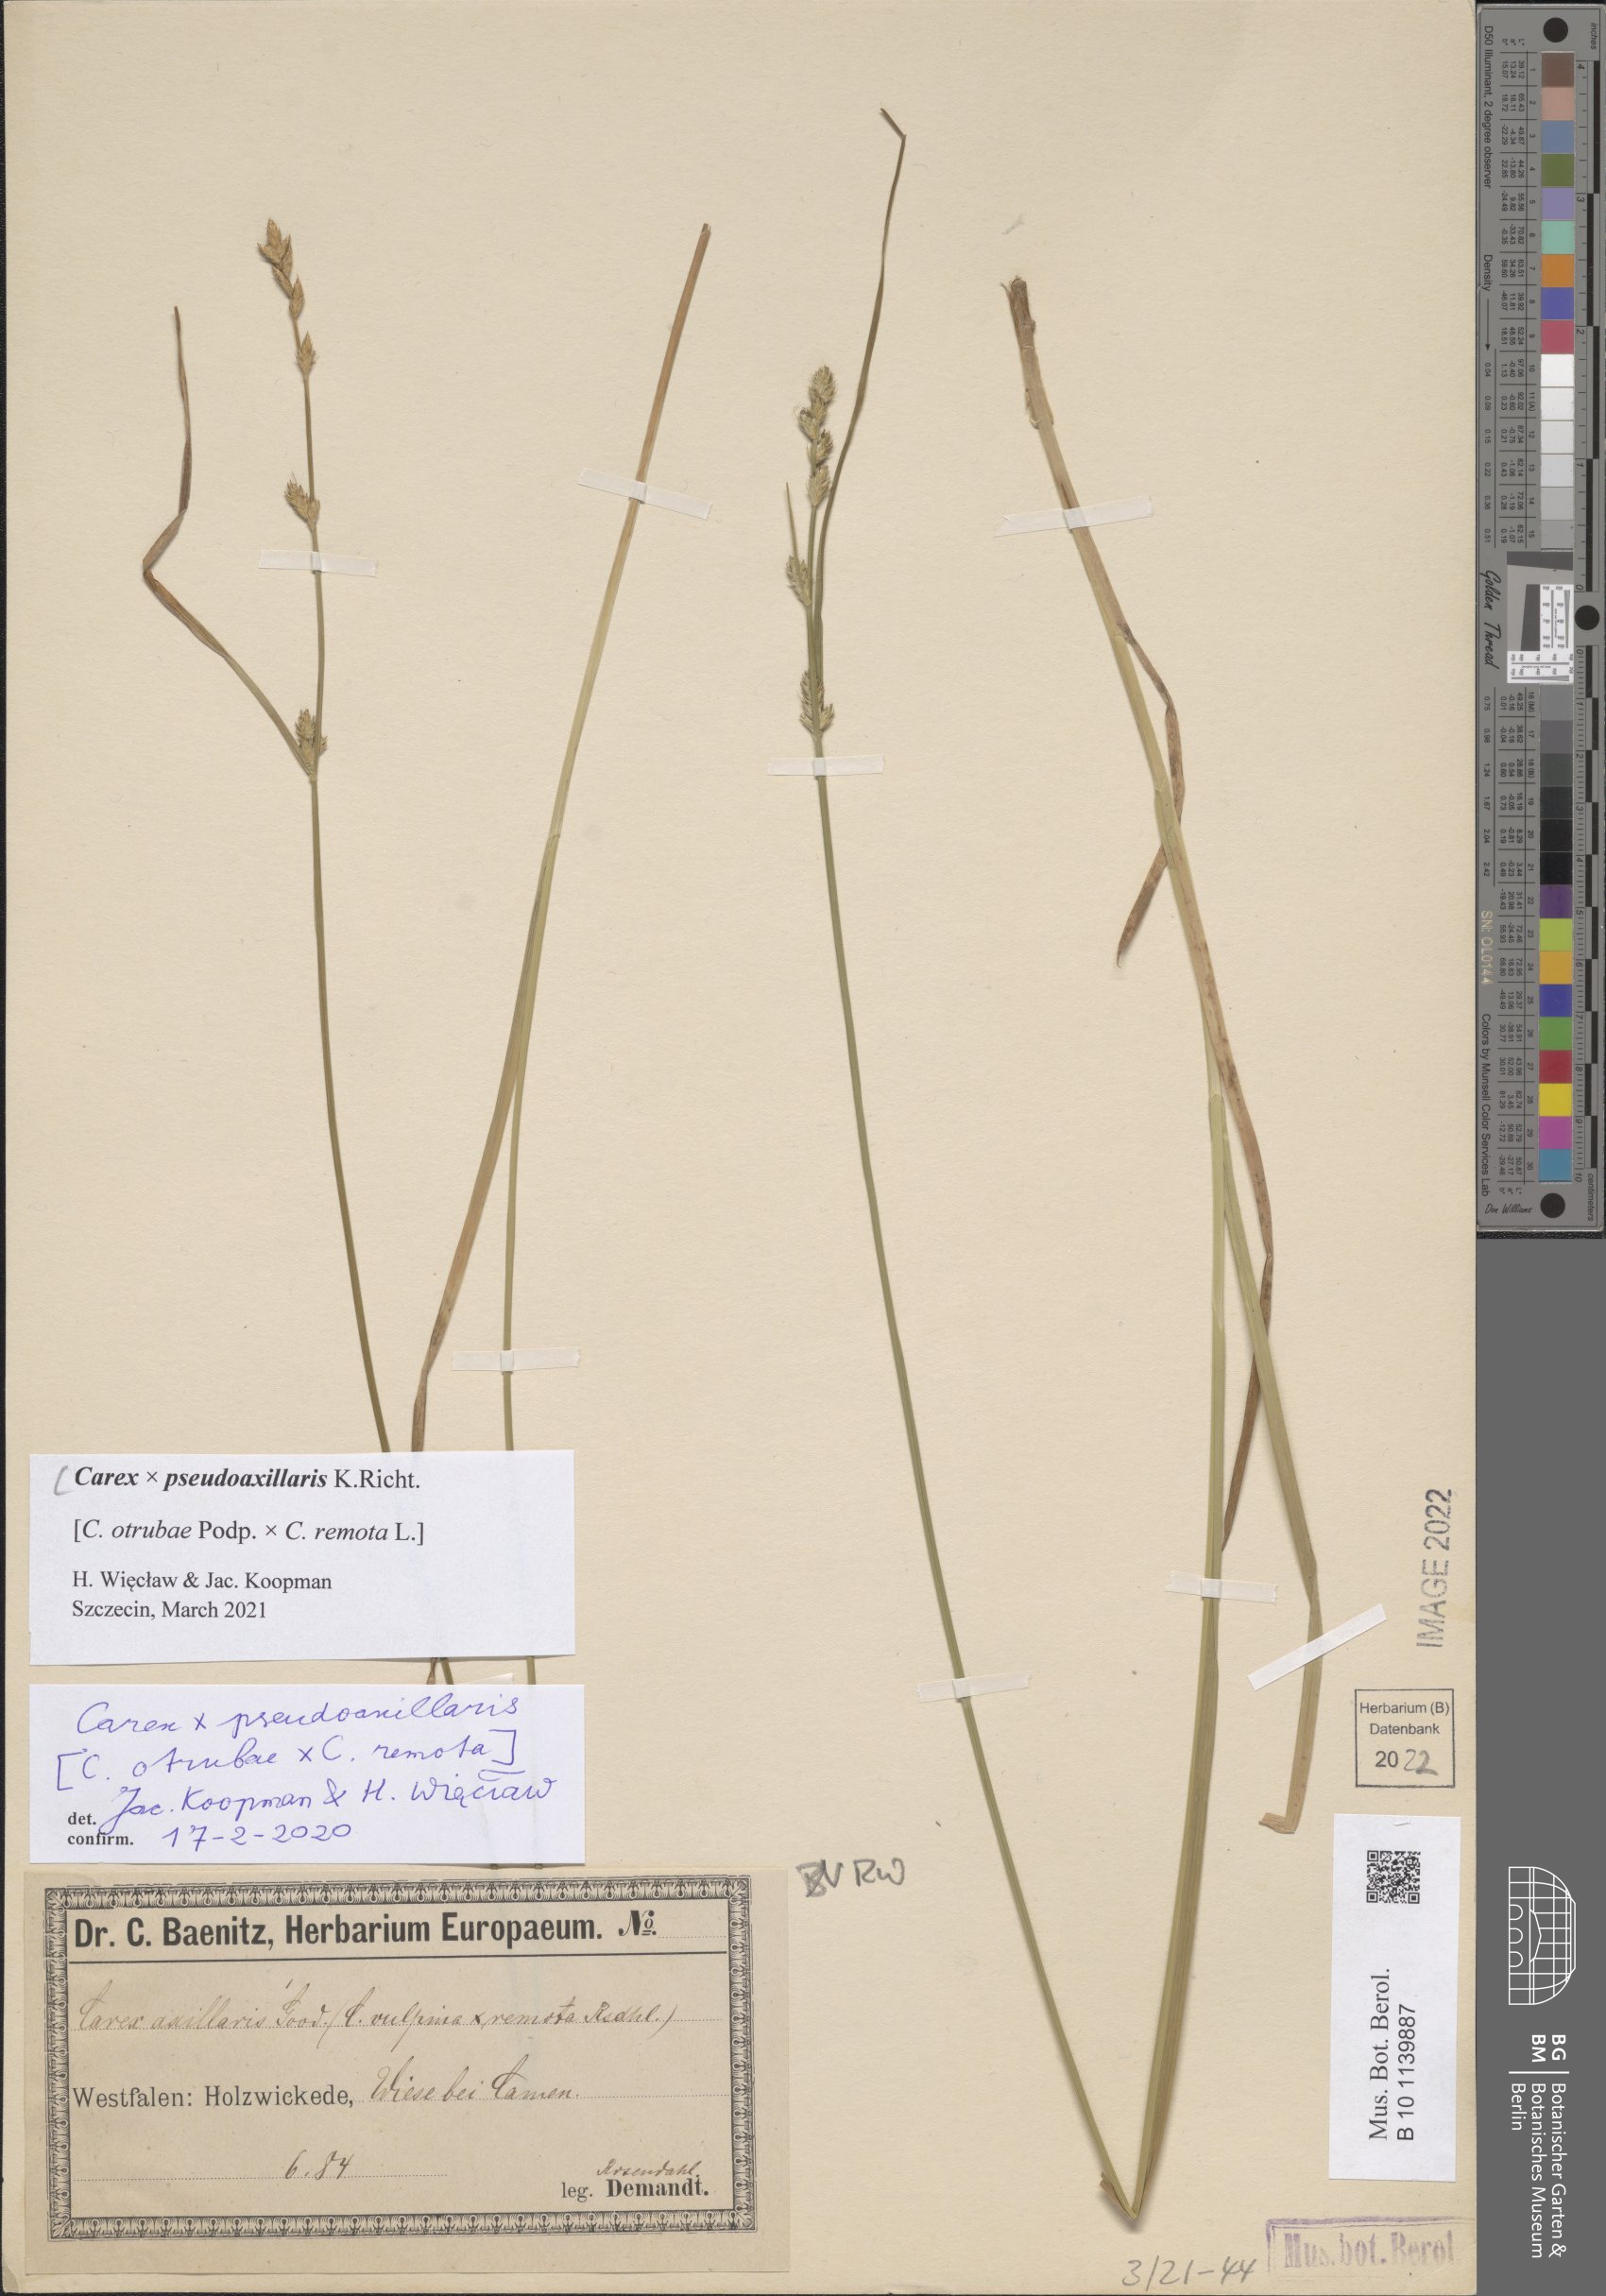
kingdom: Plantae
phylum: Tracheophyta
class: Liliopsida
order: Poales
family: Cyperaceae
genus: Carex
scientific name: Carex pseudoaxillaris
